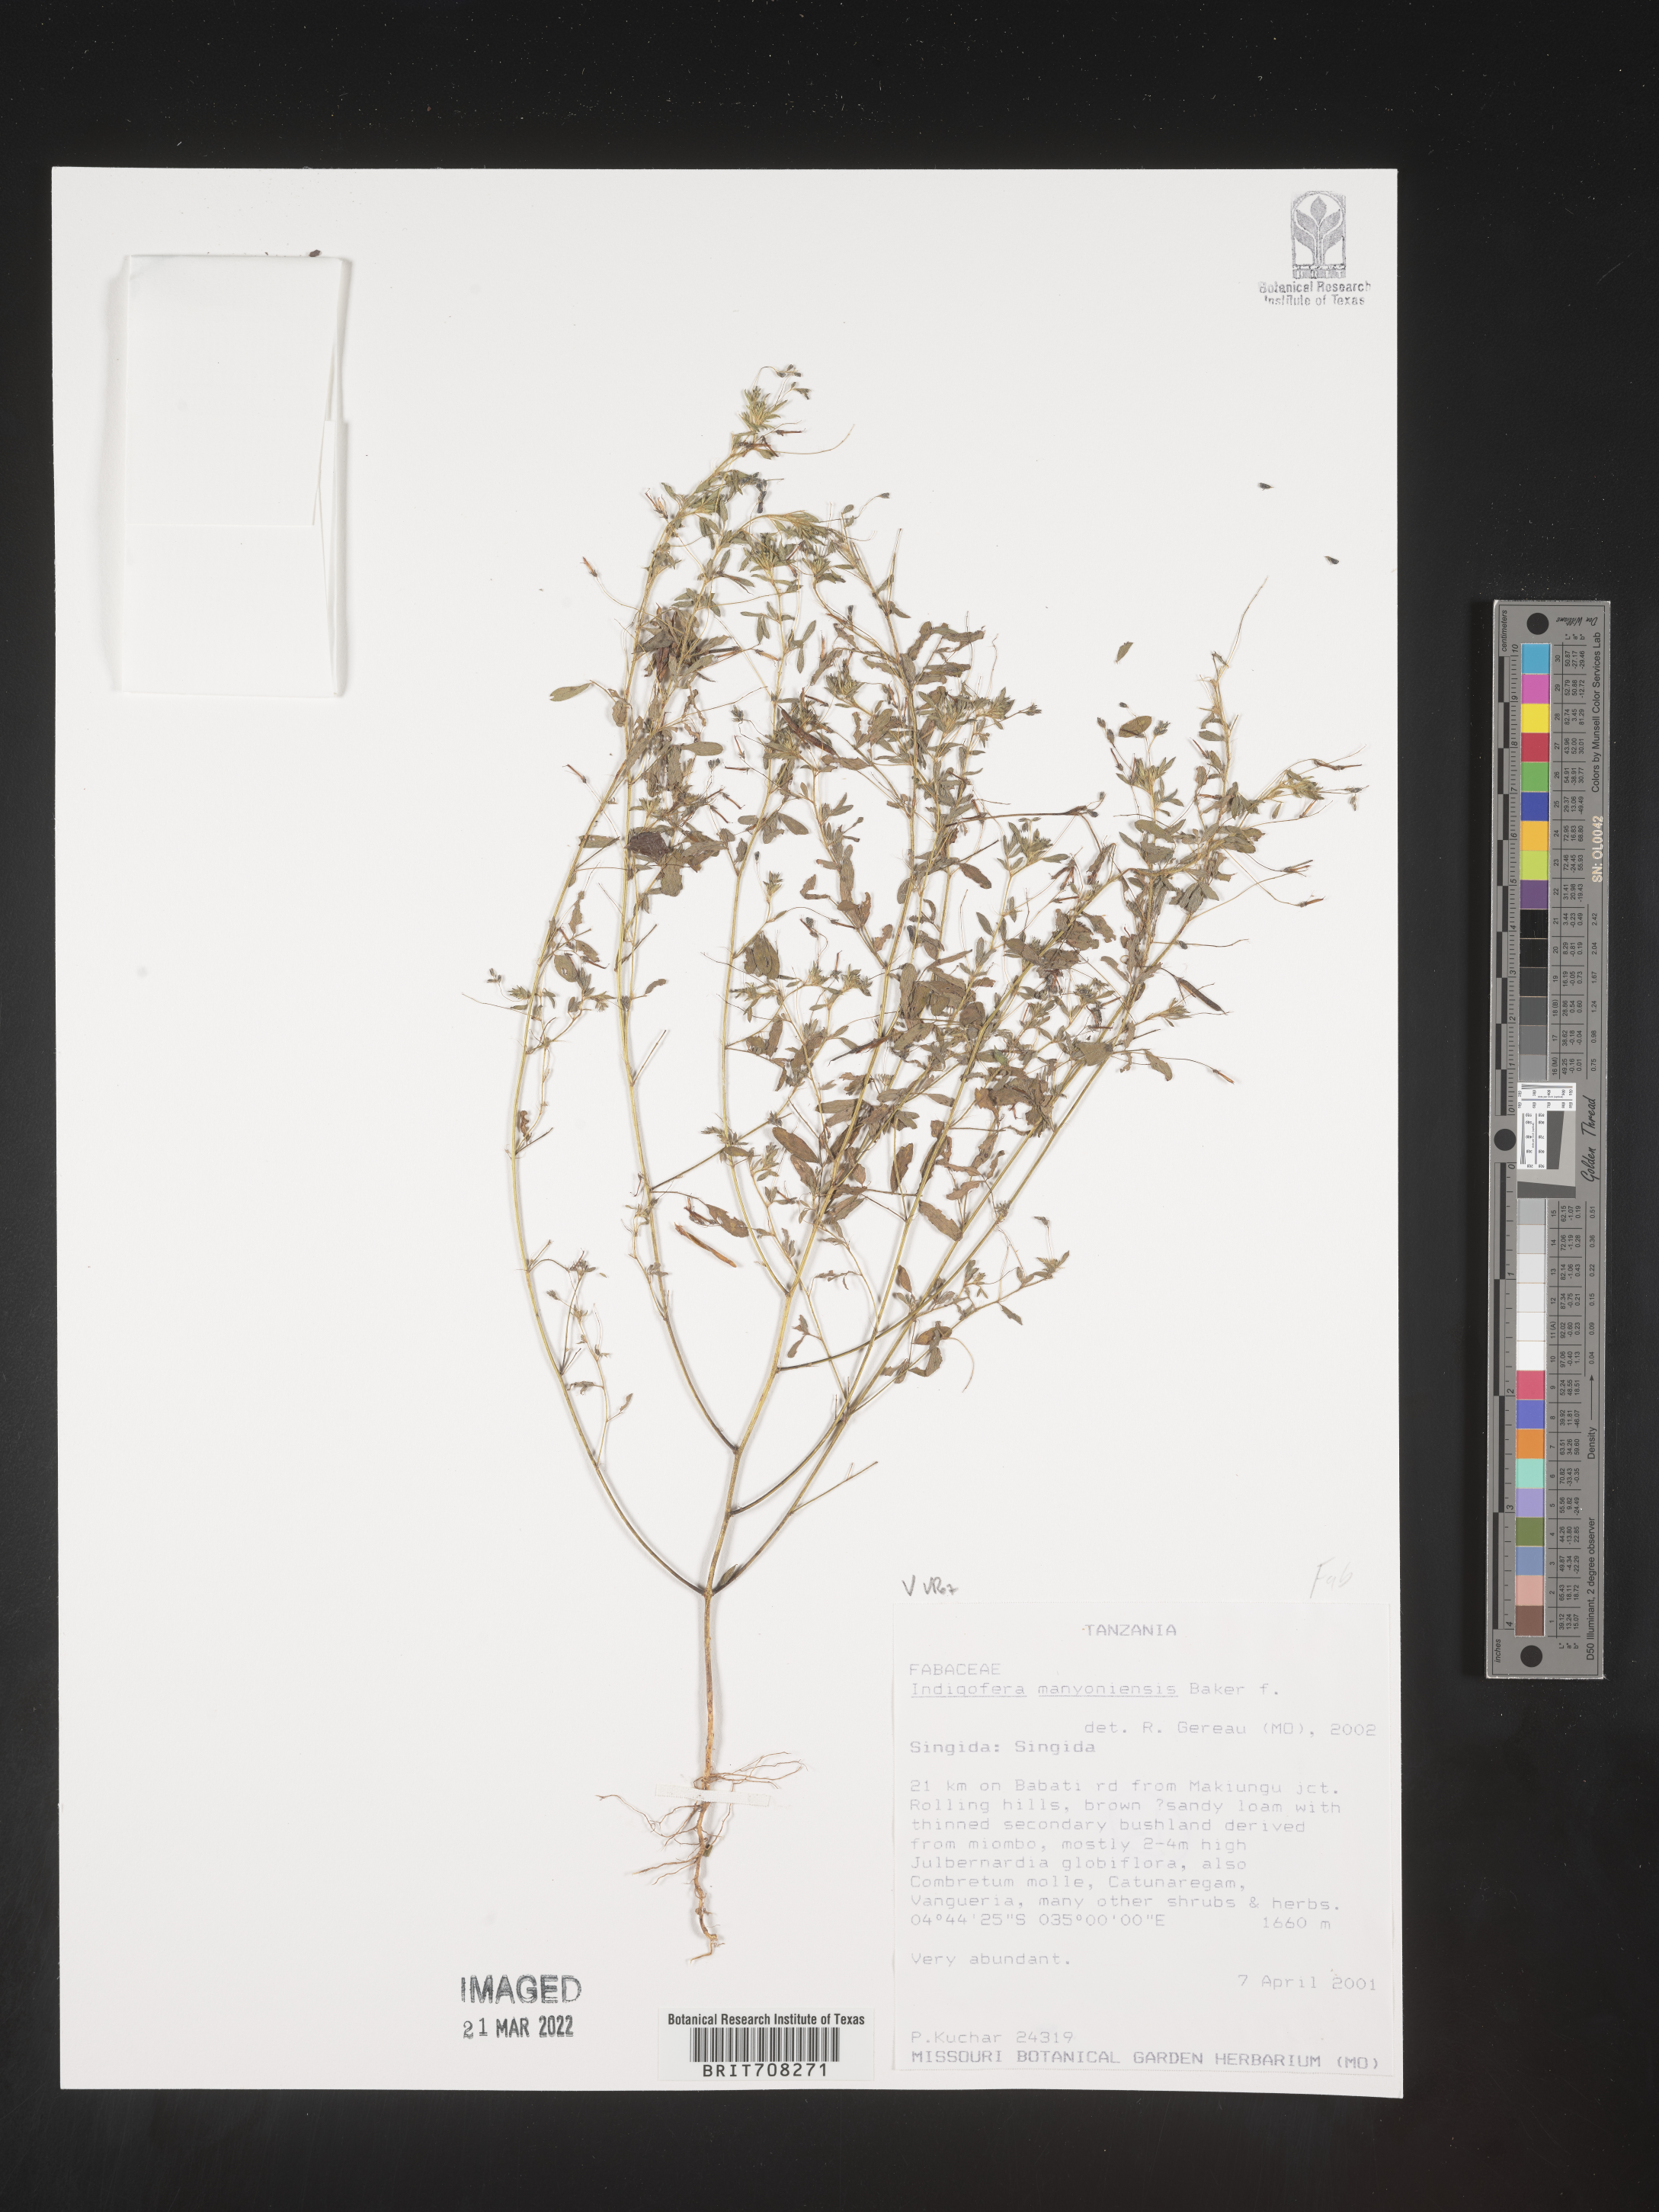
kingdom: Plantae
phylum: Tracheophyta
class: Magnoliopsida
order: Fabales
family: Fabaceae
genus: Indigofera
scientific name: Indigofera
